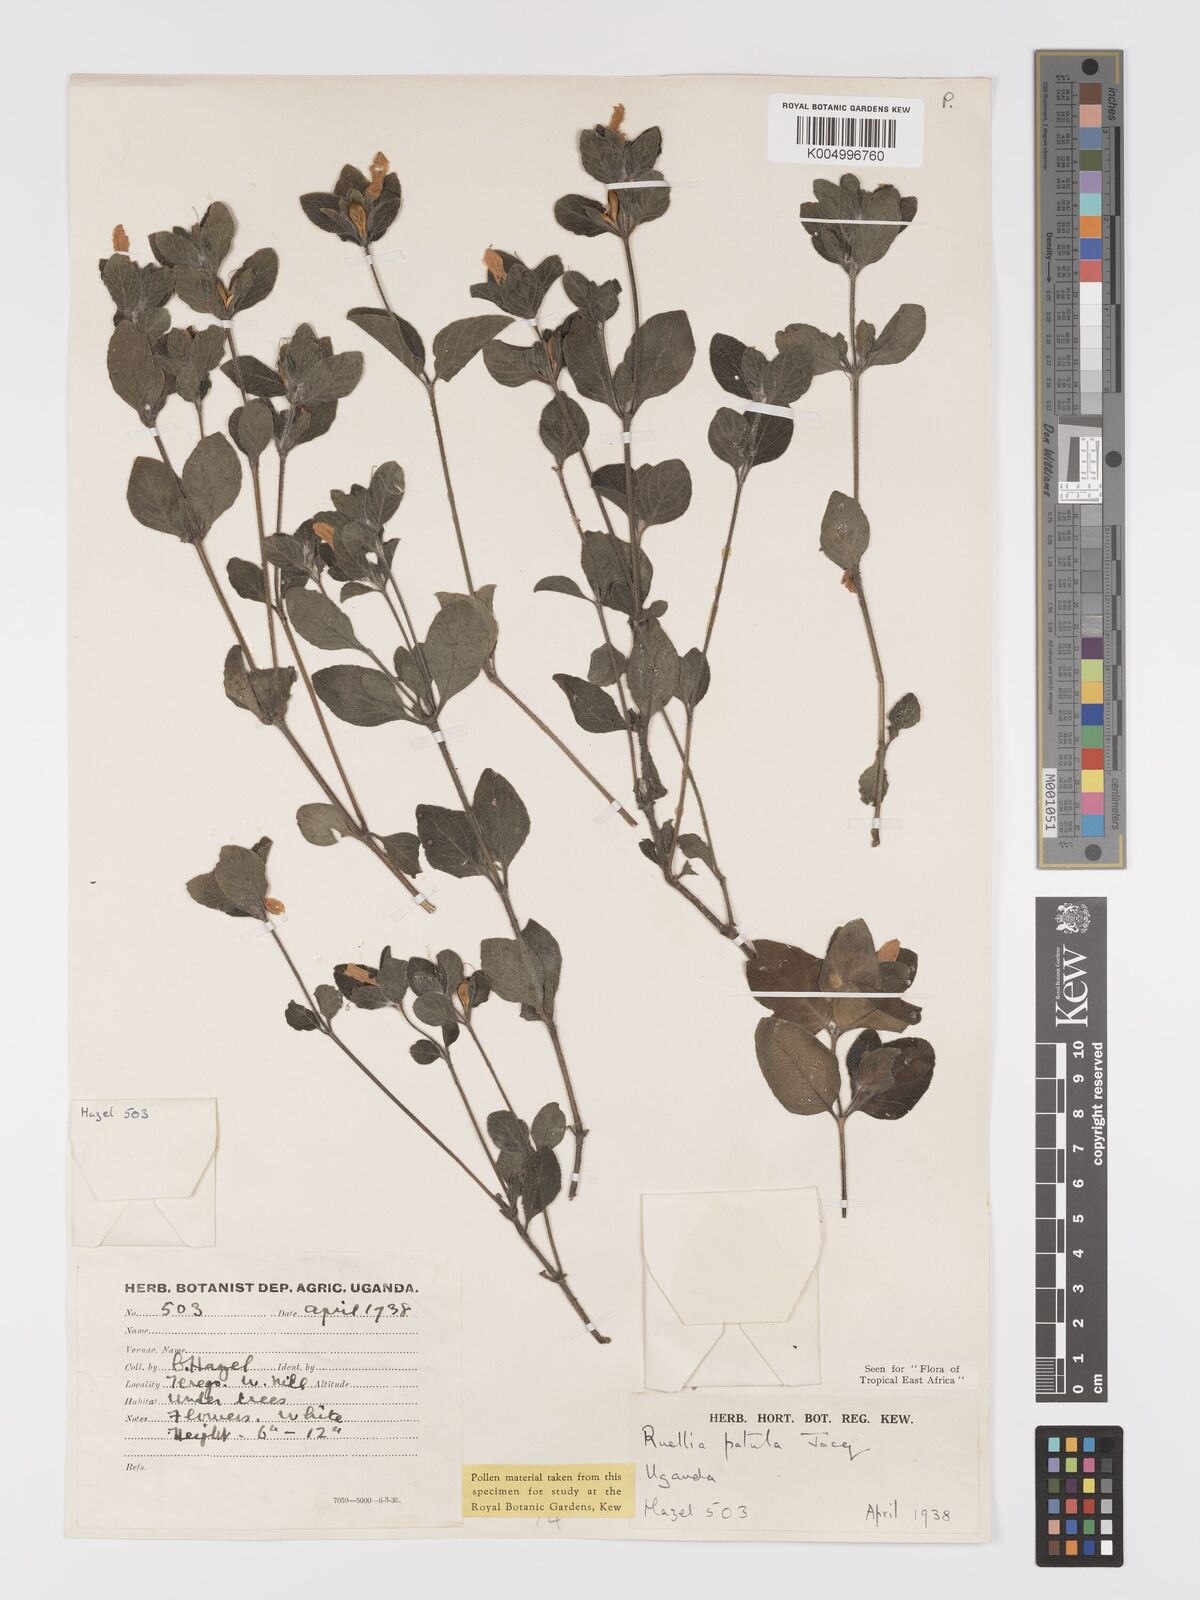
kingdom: Plantae
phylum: Tracheophyta
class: Magnoliopsida
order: Lamiales
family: Acanthaceae
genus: Ruellia
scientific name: Ruellia patula
